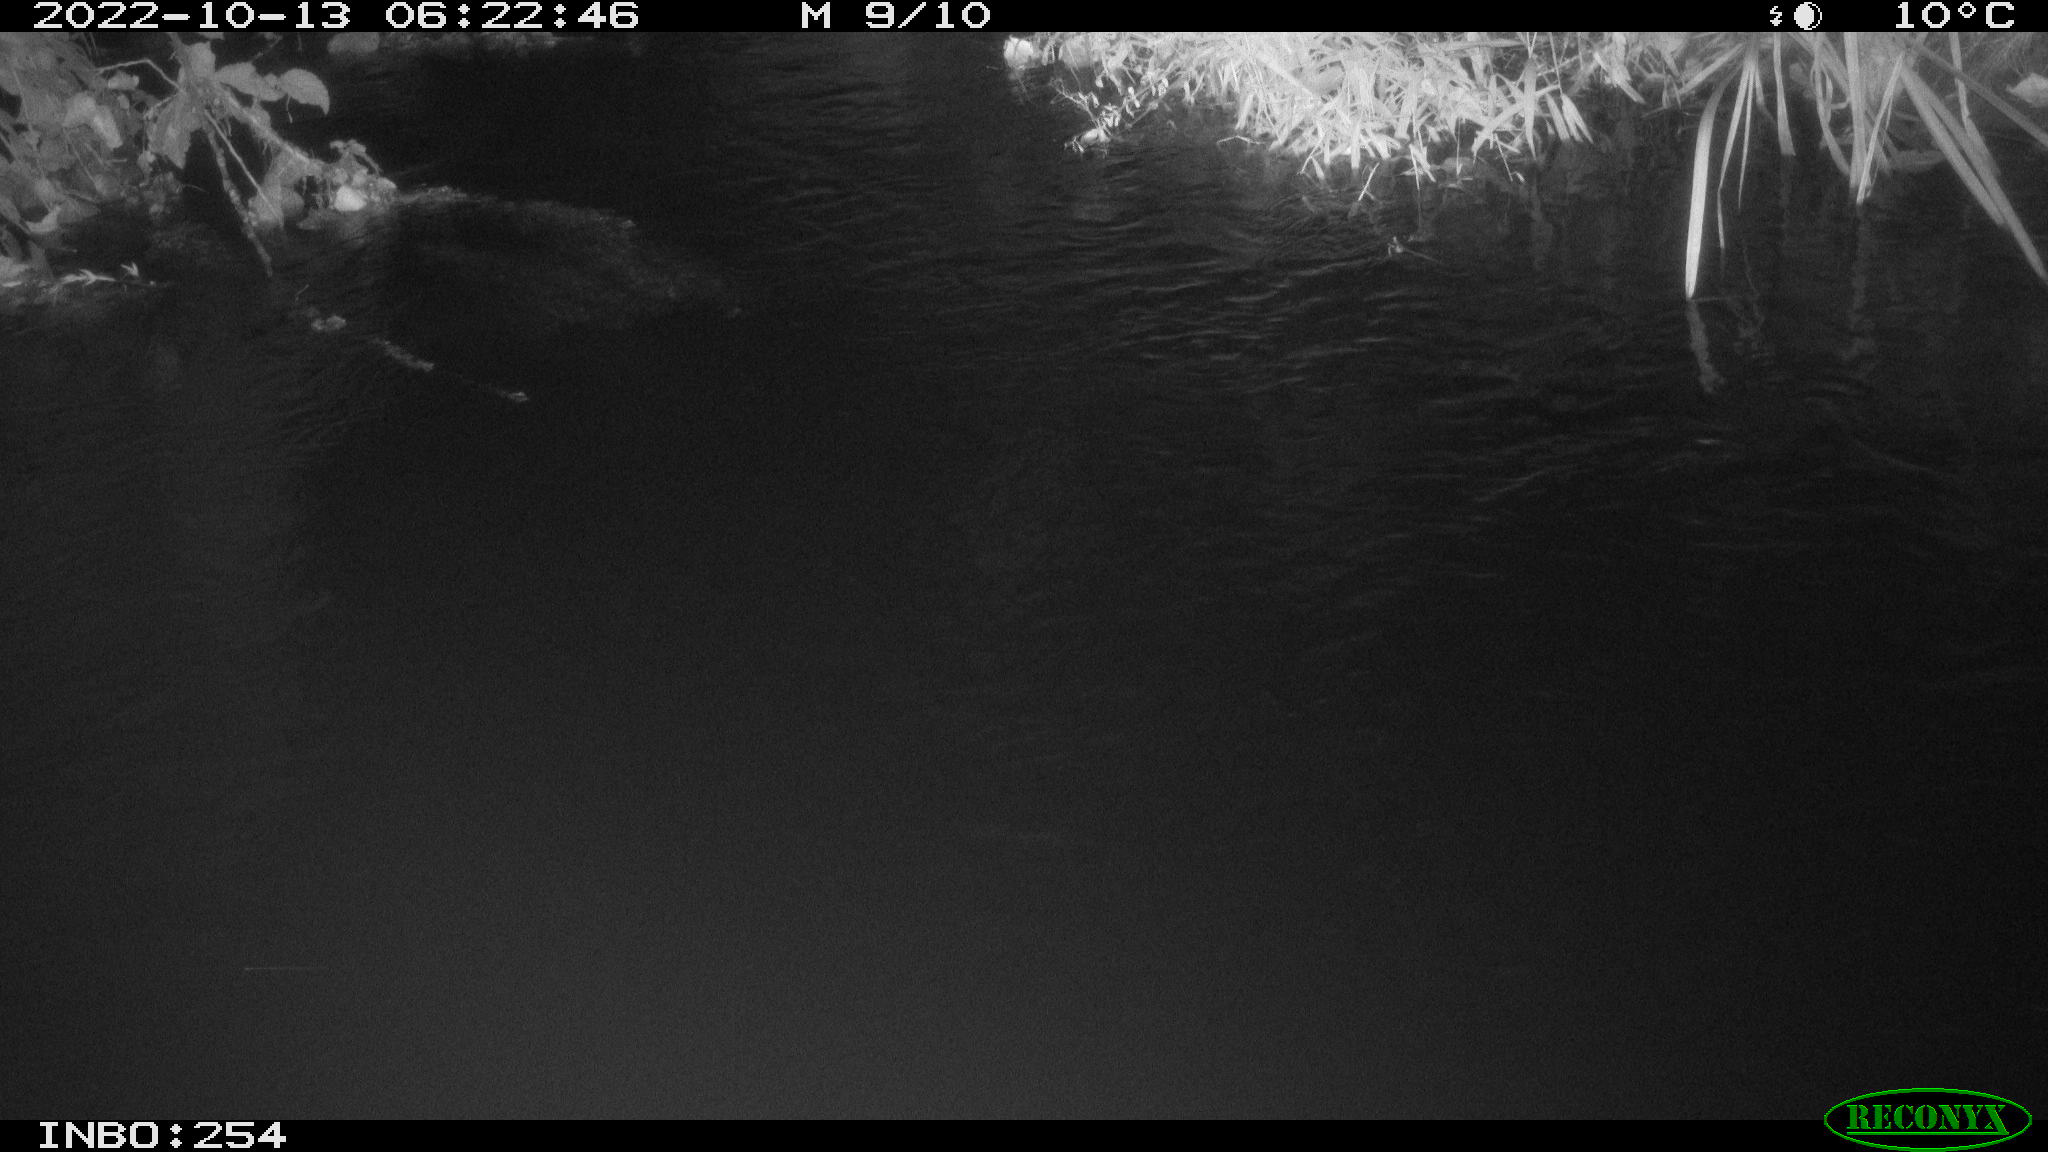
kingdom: Animalia
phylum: Chordata
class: Aves
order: Anseriformes
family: Anatidae
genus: Anas
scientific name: Anas
